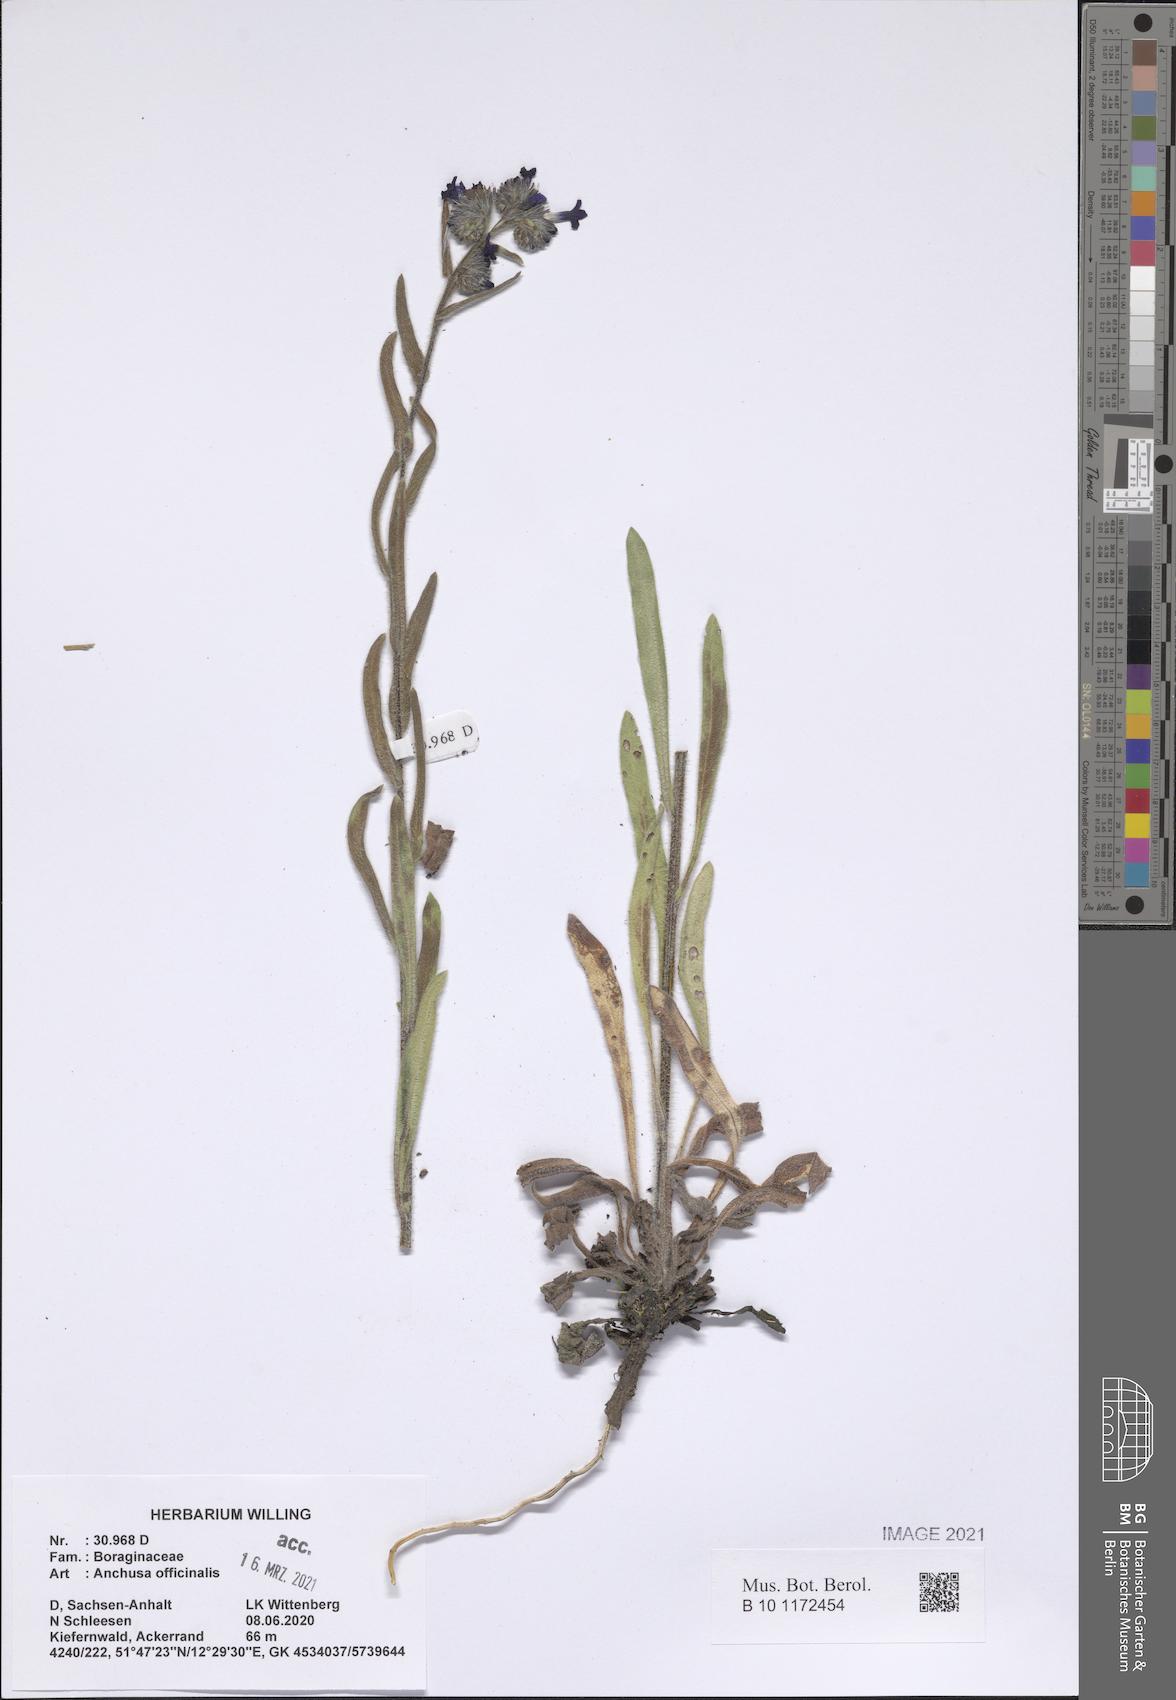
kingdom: Plantae
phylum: Tracheophyta
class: Magnoliopsida
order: Boraginales
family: Boraginaceae
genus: Anchusa
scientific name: Anchusa officinalis
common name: Alkanet
